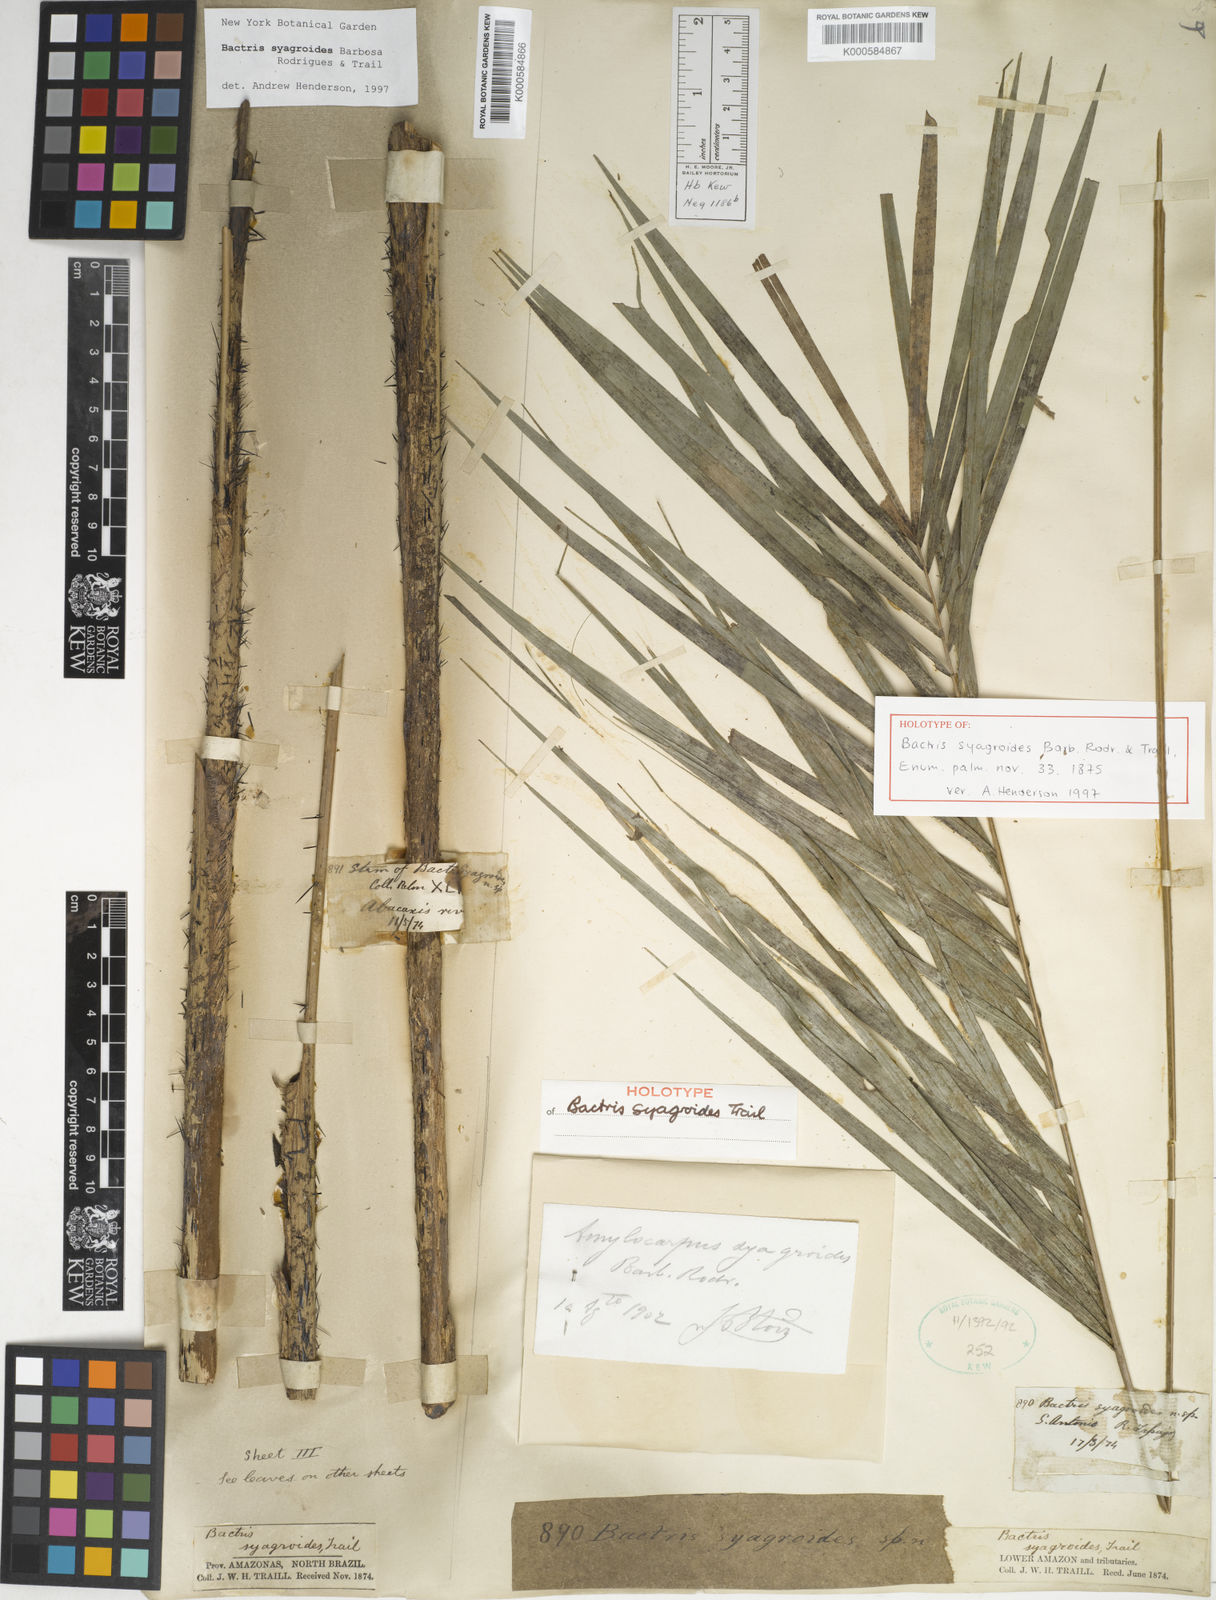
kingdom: Plantae
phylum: Tracheophyta
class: Liliopsida
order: Arecales
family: Arecaceae
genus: Bactris
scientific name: Bactris syagroides
